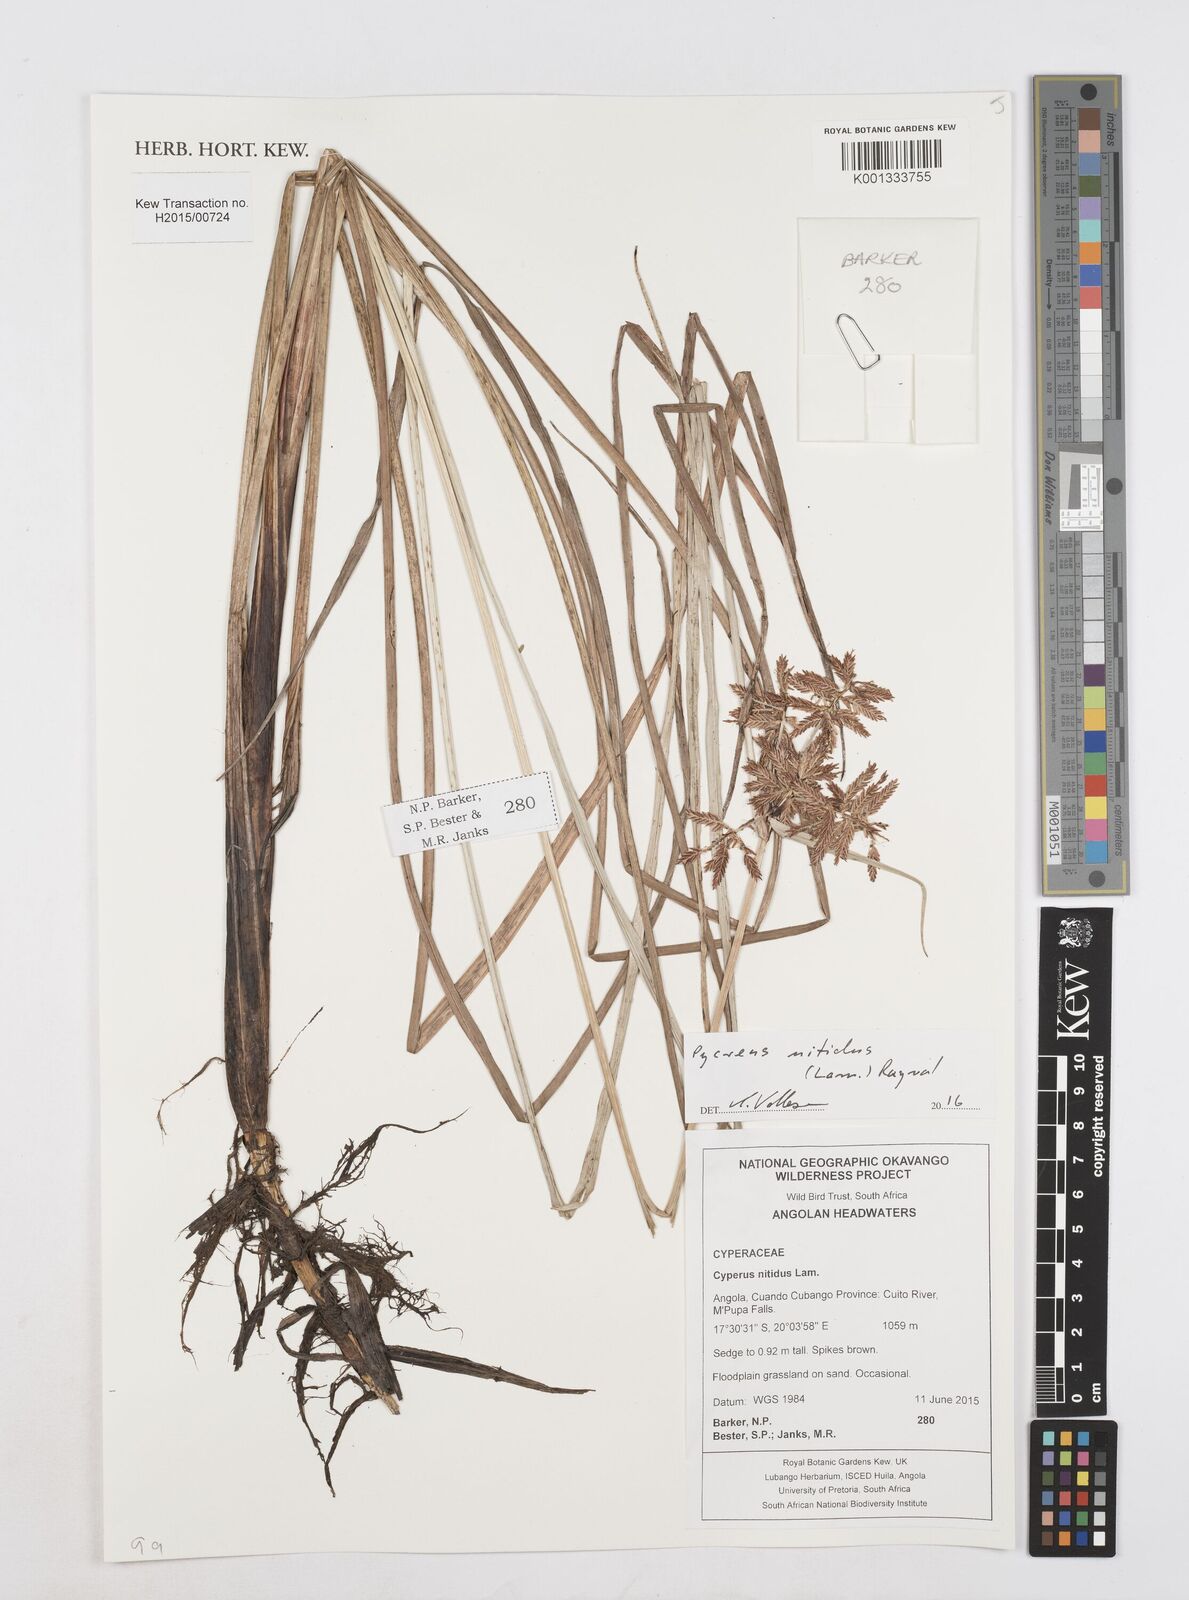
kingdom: Plantae
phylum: Tracheophyta
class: Liliopsida
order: Poales
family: Cyperaceae
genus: Cyperus
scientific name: Cyperus nitidus
